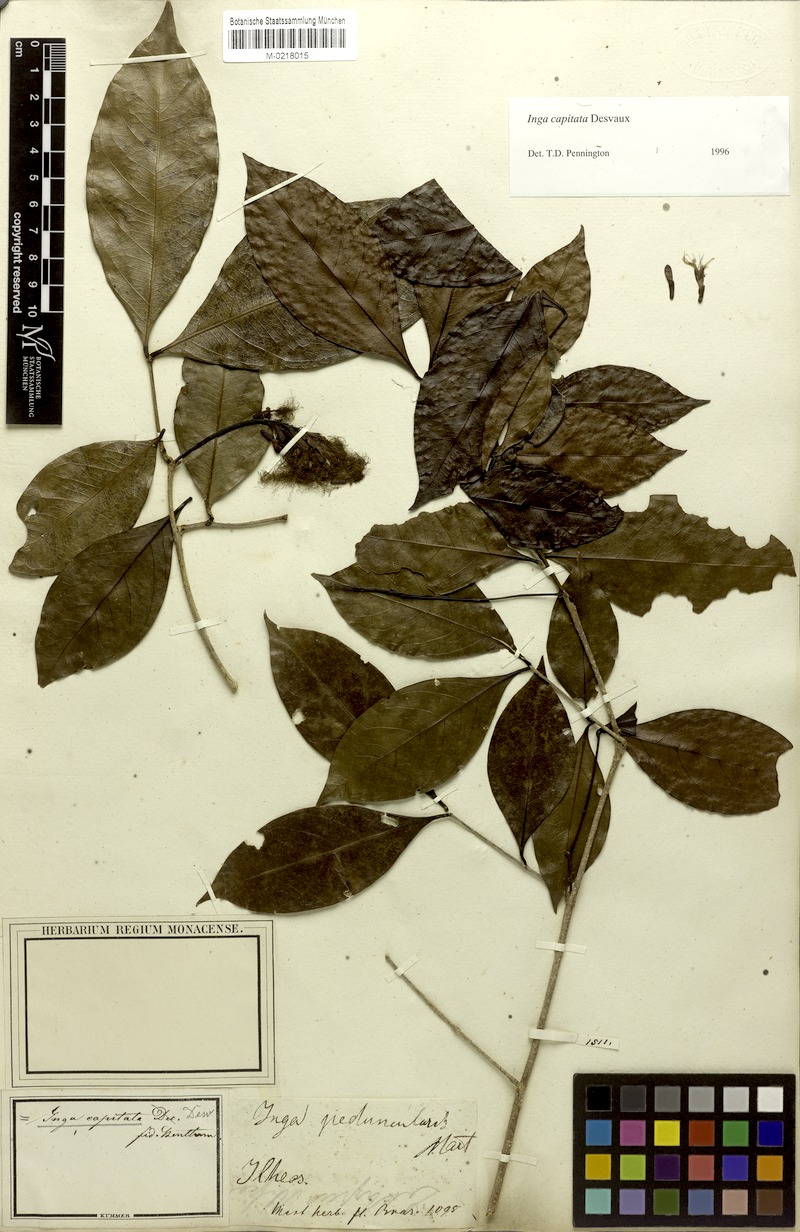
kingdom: Plantae
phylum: Tracheophyta
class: Magnoliopsida
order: Fabales
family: Fabaceae
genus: Inga
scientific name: Inga capitata
